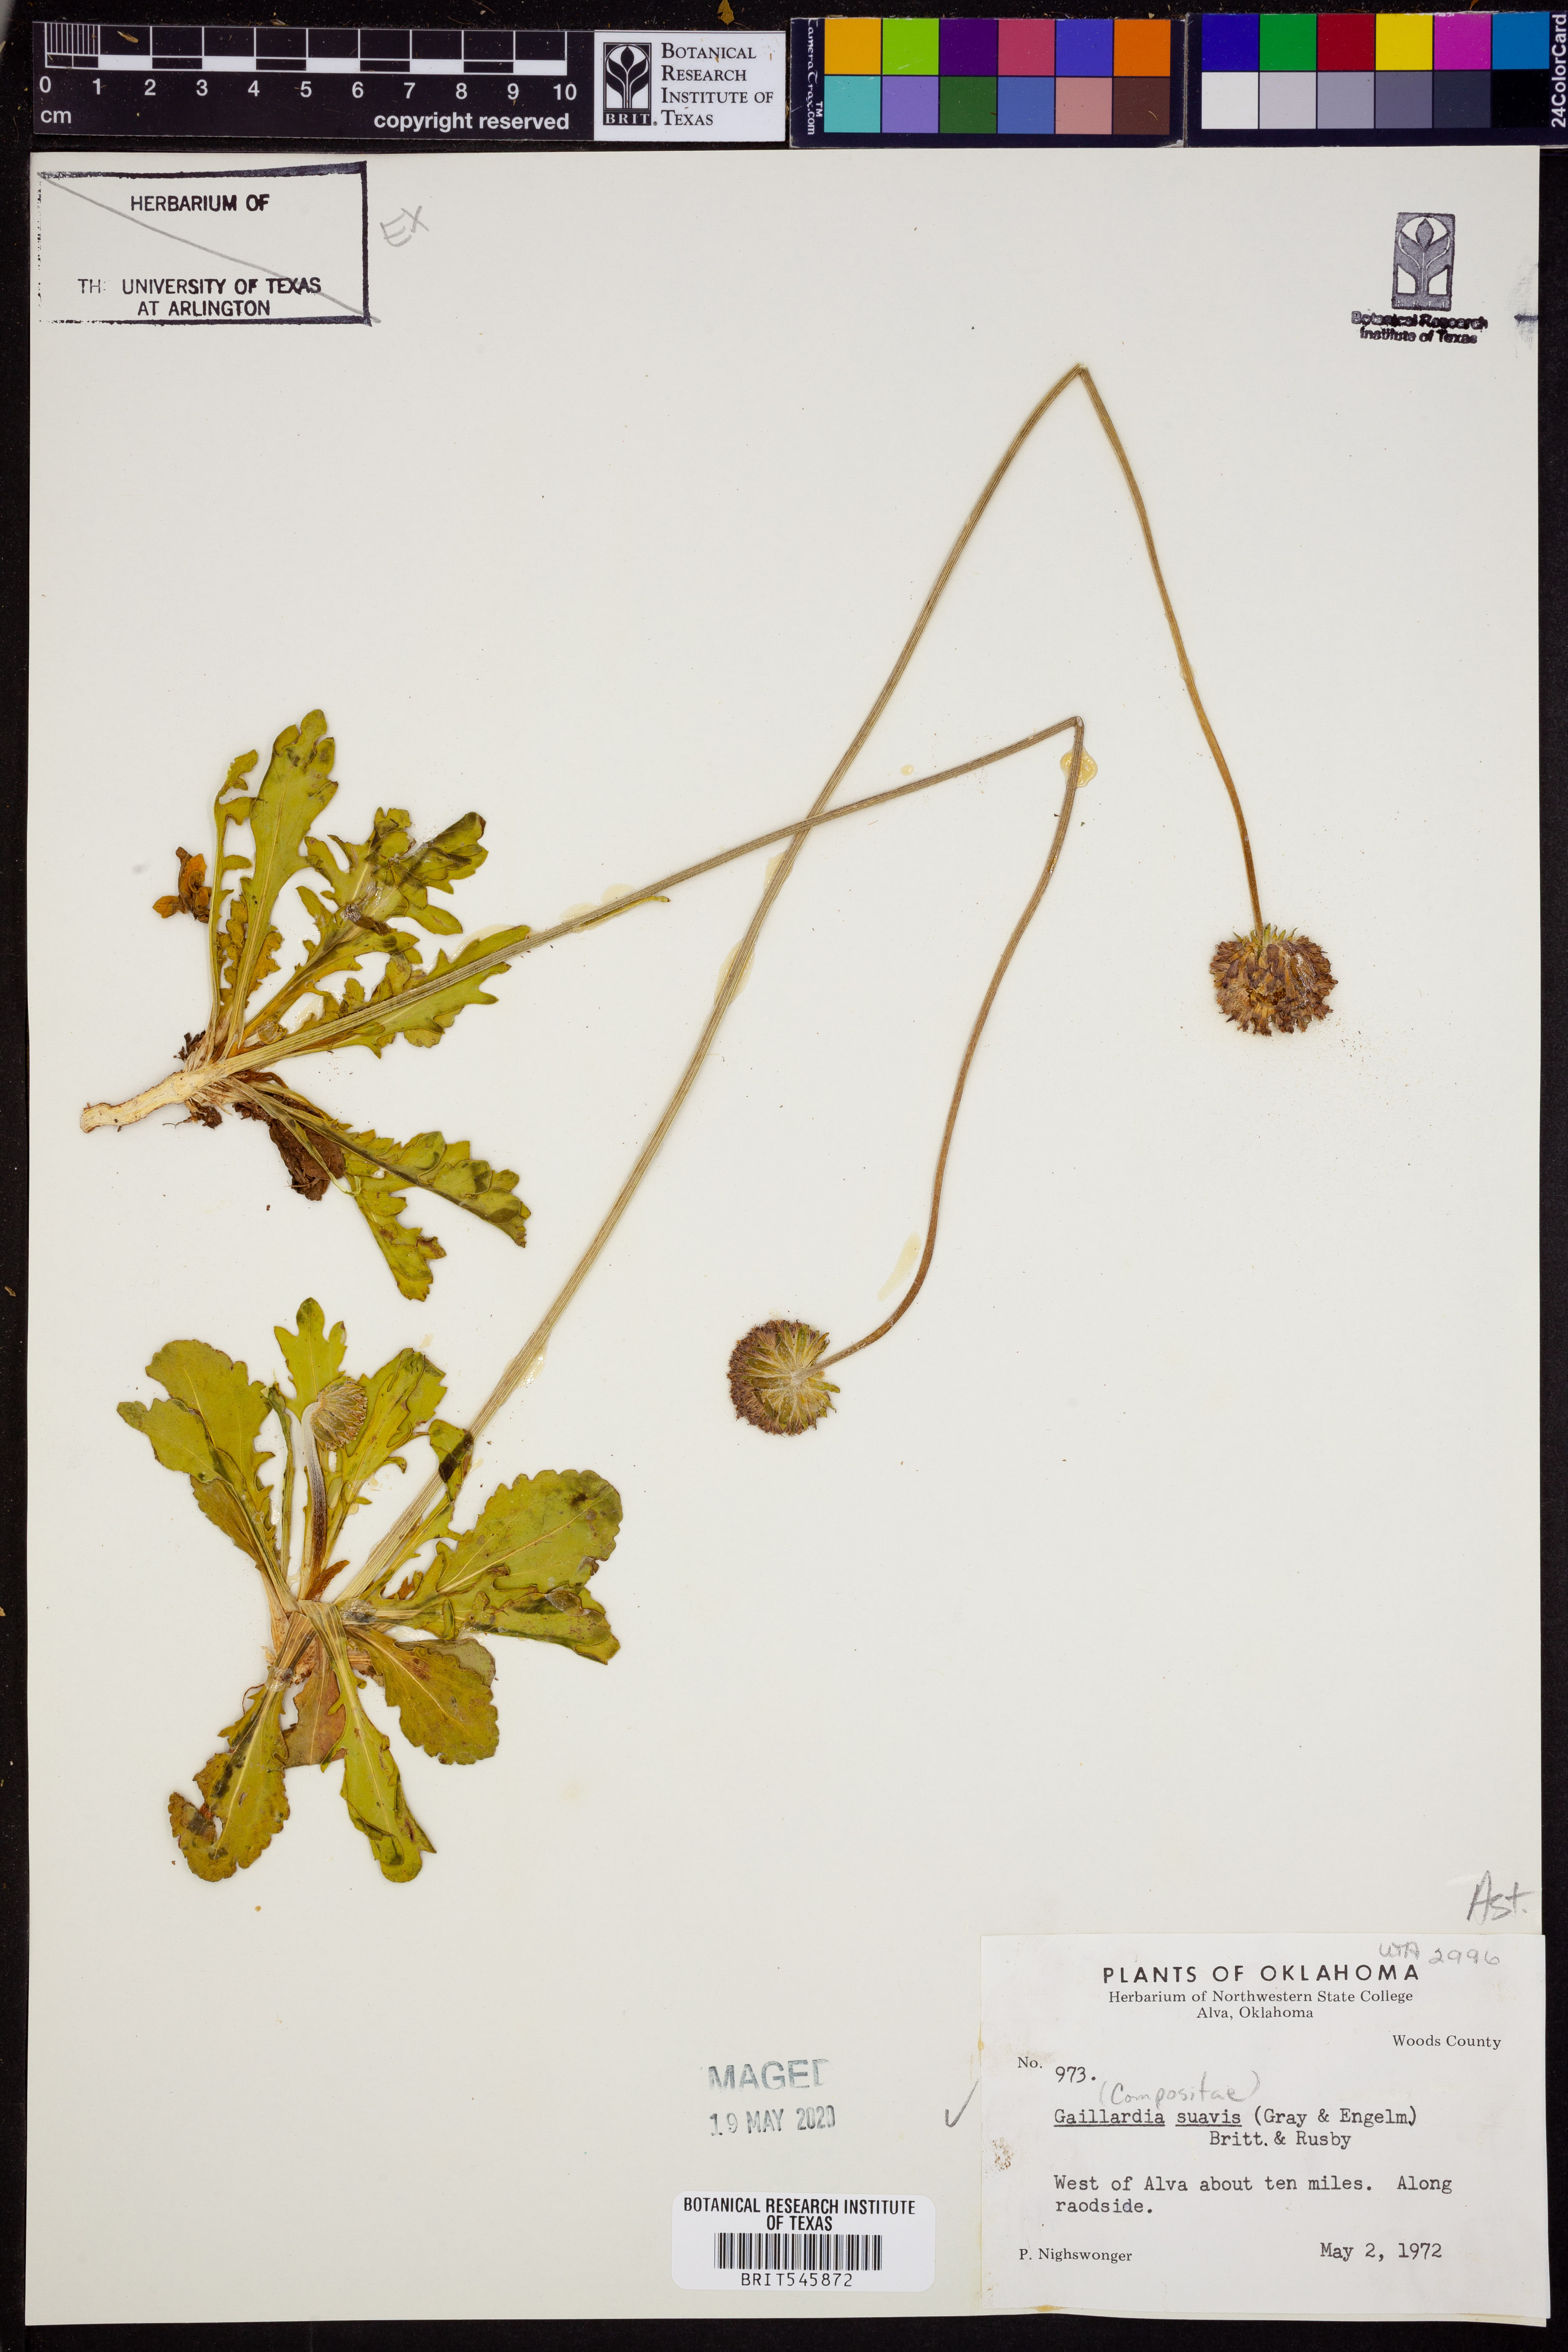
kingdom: Plantae
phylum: Tracheophyta
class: Magnoliopsida
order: Asterales
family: Asteraceae
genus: Gaillardia
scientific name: Gaillardia suavis
